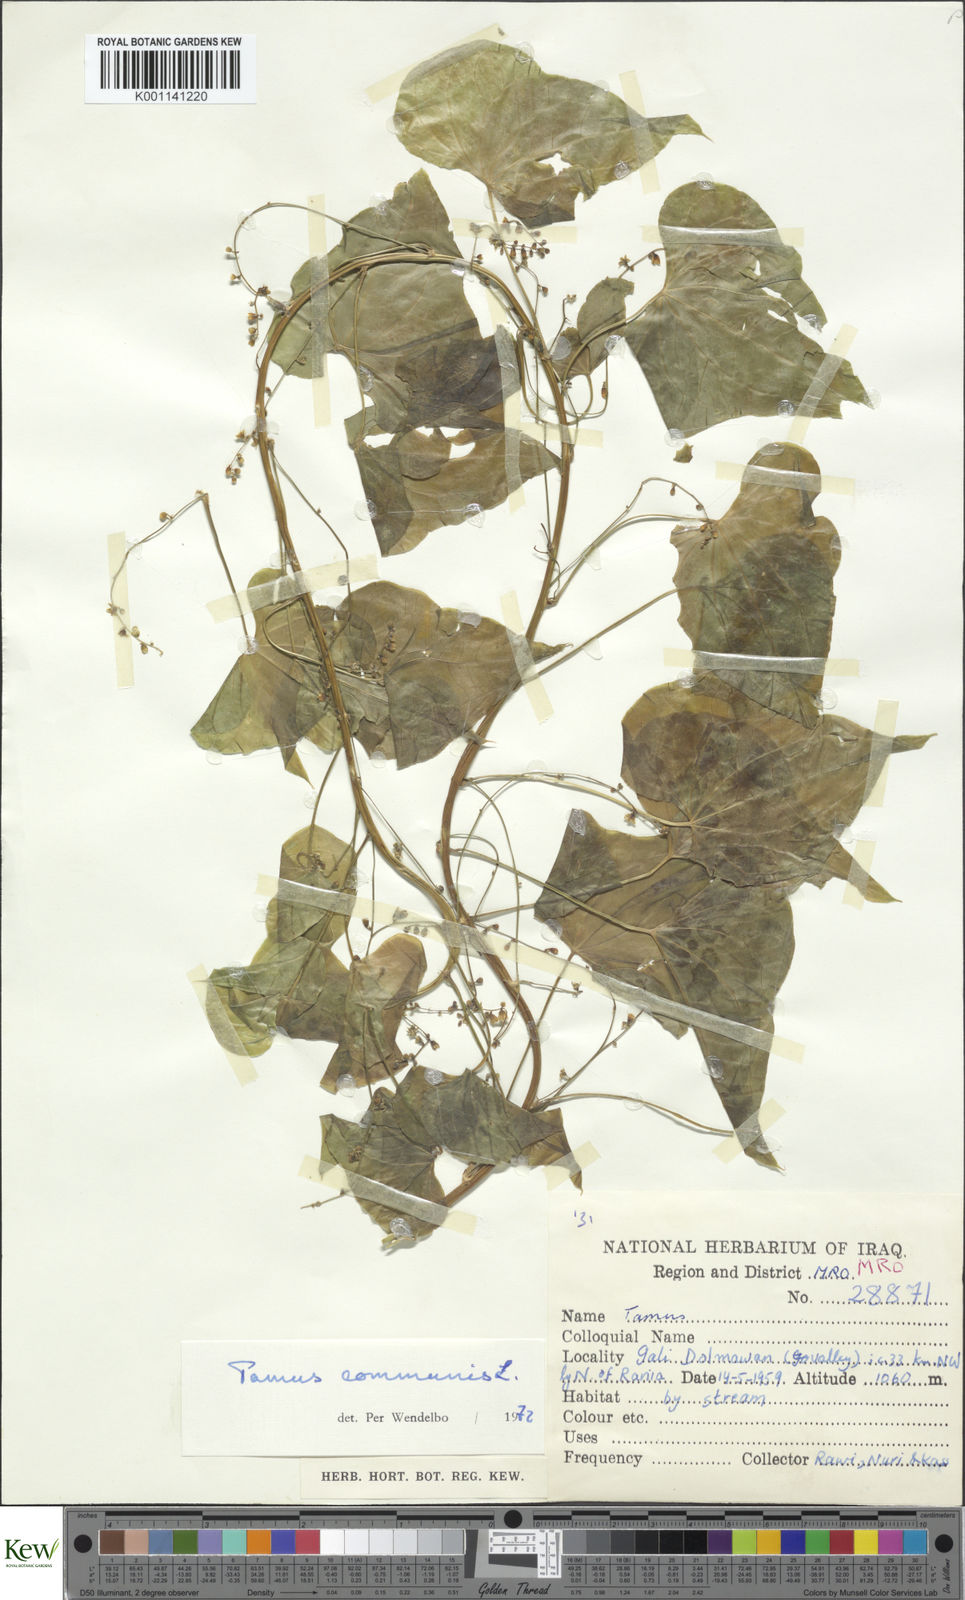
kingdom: Plantae
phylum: Tracheophyta
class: Liliopsida
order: Dioscoreales
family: Dioscoreaceae
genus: Dioscorea
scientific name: Dioscorea communis
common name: Black-bindweed
